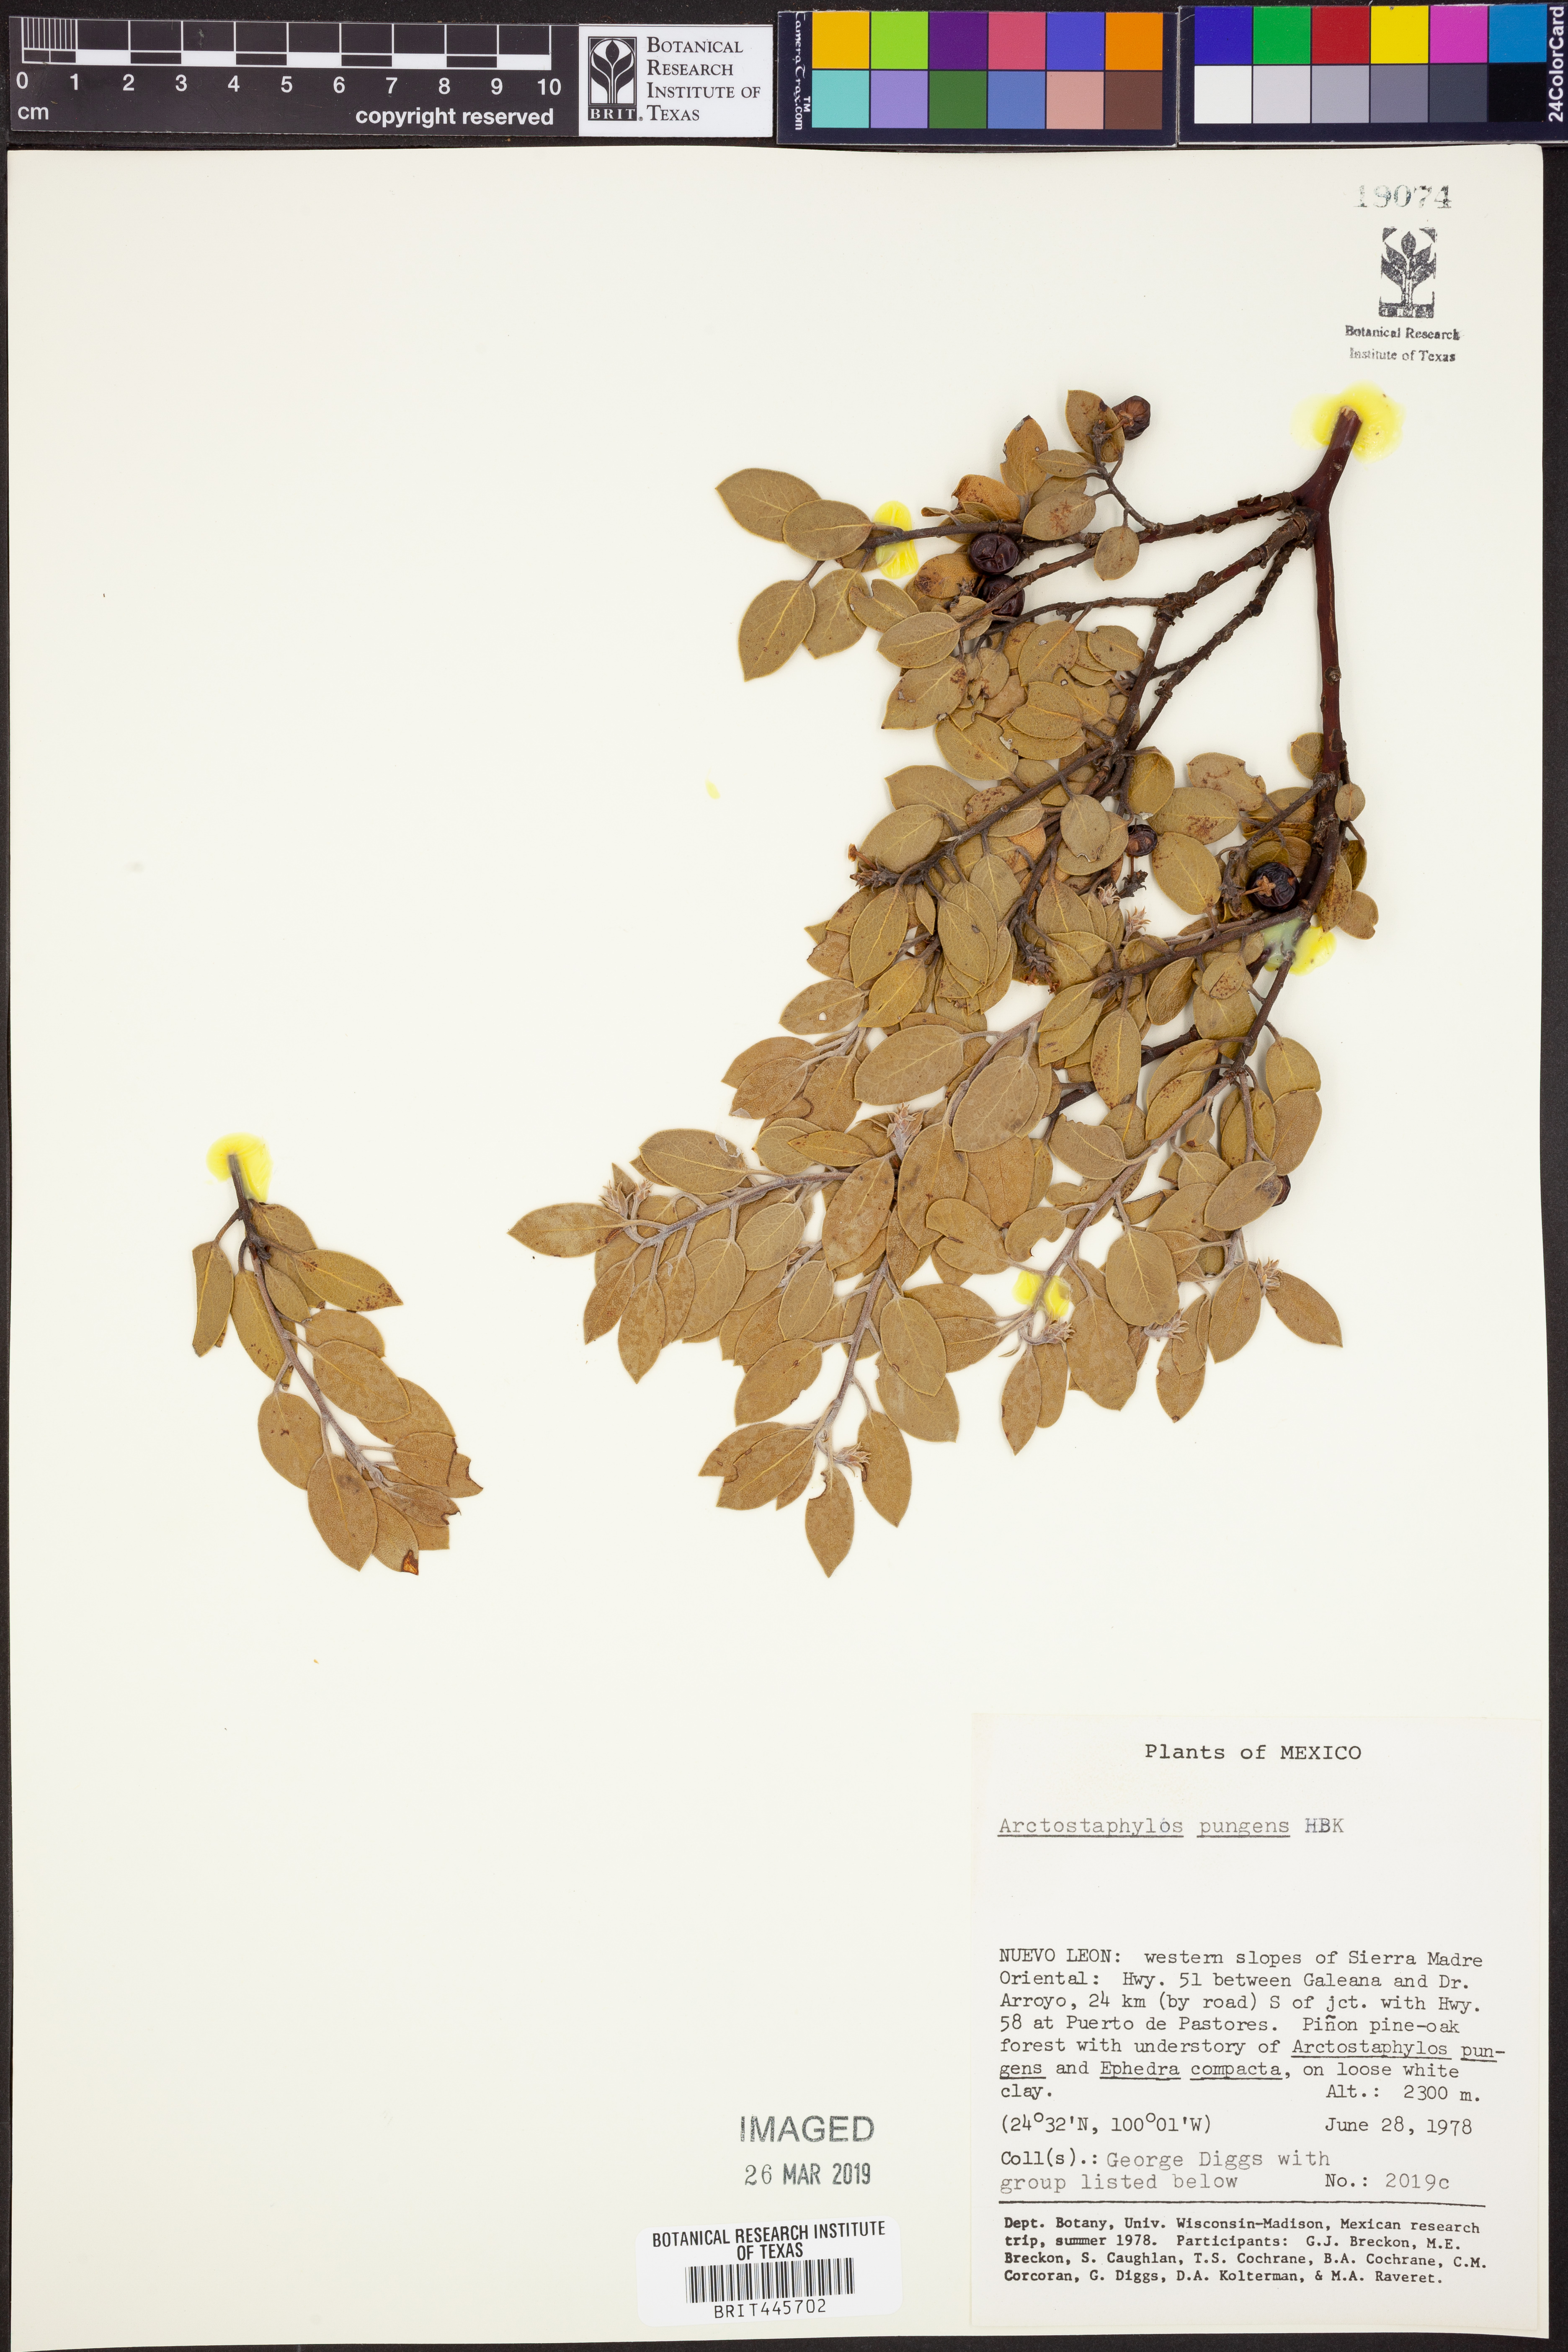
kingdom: Plantae
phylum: Tracheophyta
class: Magnoliopsida
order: Ericales
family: Ericaceae
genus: Arctostaphylos
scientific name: Arctostaphylos pungens
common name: Mexican manzanita
